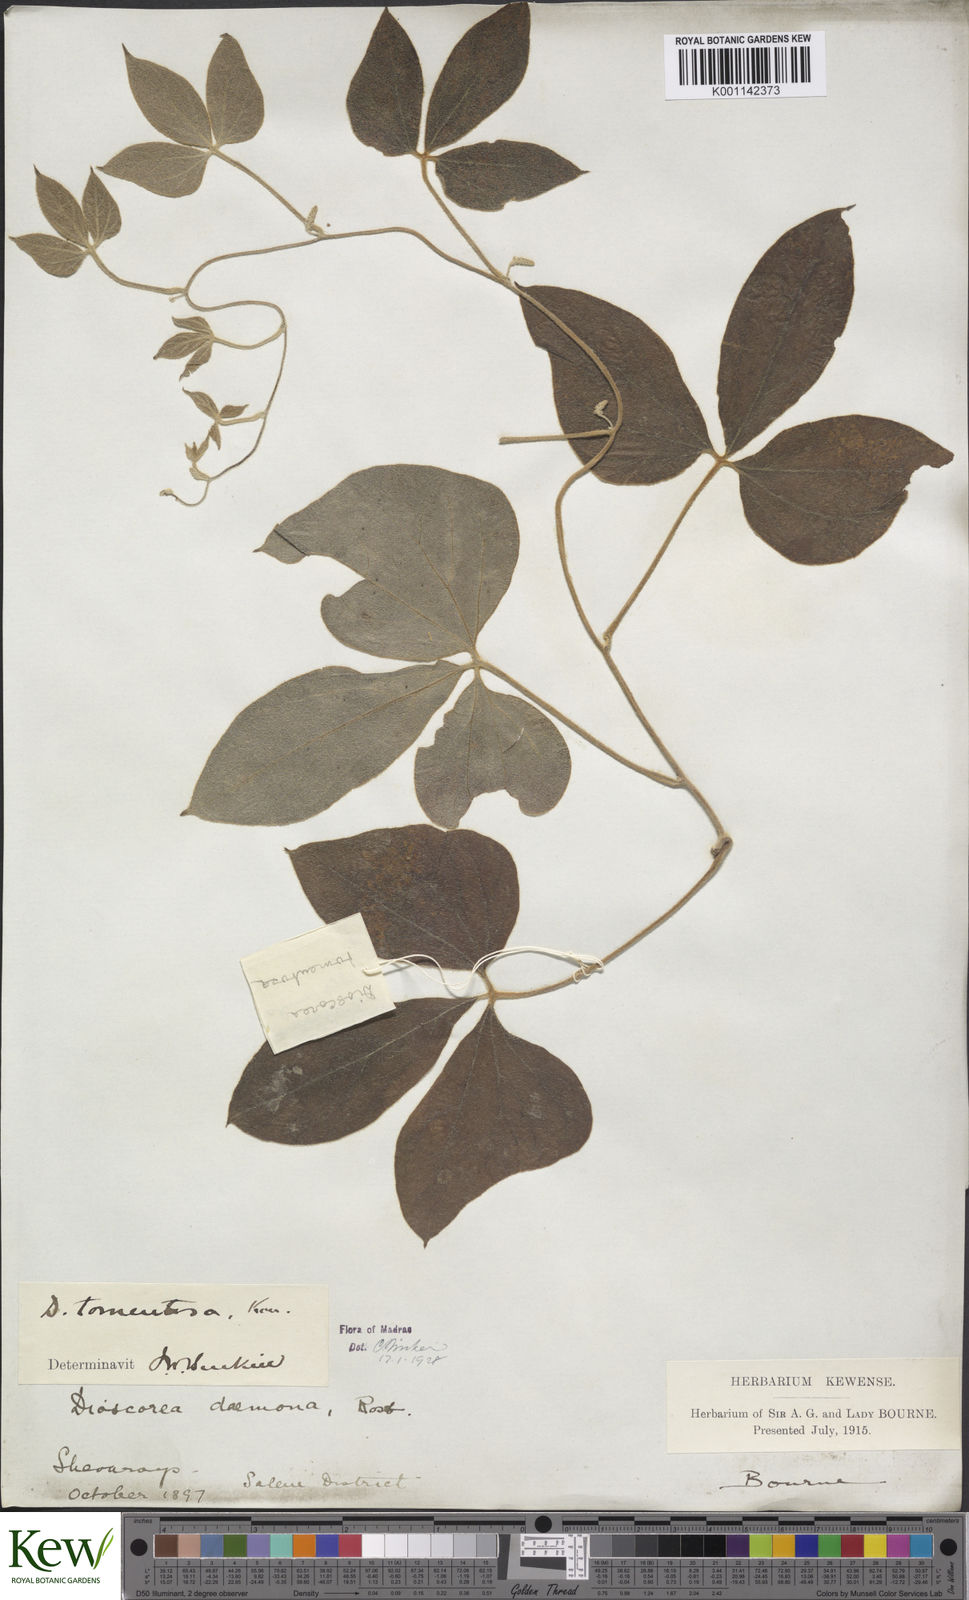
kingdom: Plantae
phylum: Tracheophyta
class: Liliopsida
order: Dioscoreales
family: Dioscoreaceae
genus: Dioscorea
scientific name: Dioscorea
